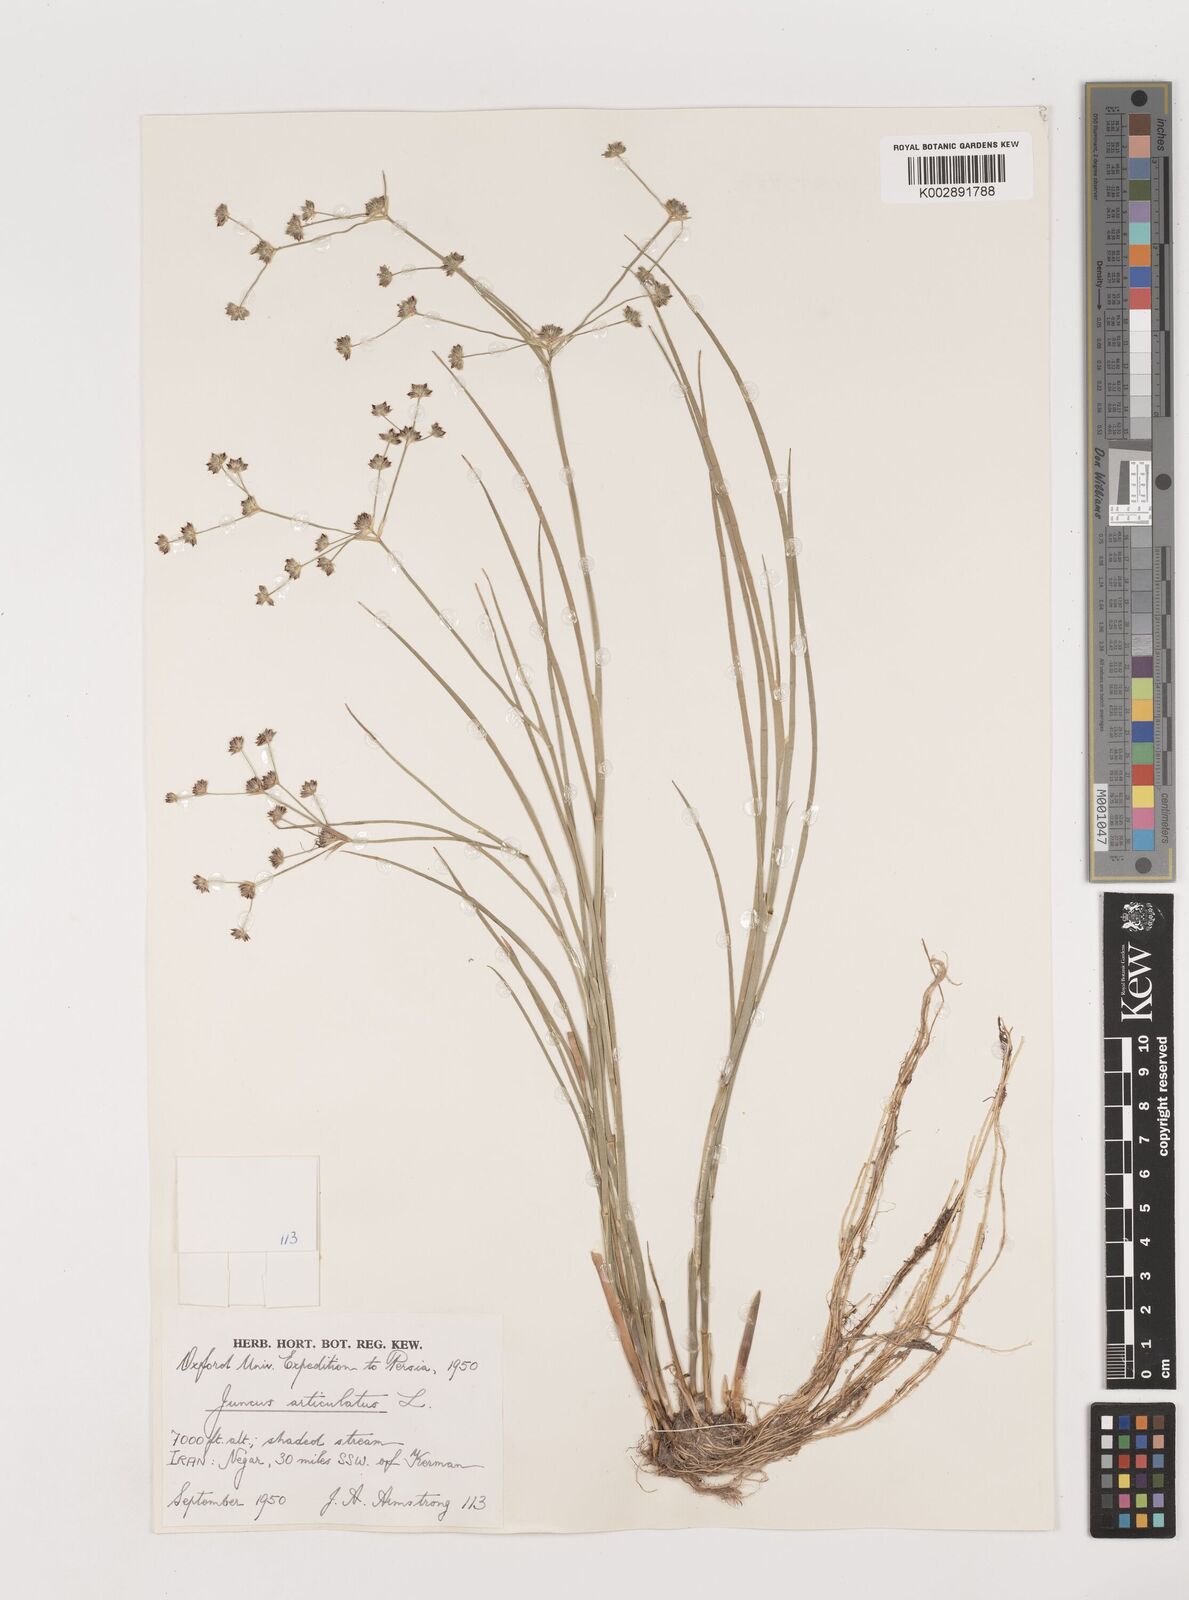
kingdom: Plantae
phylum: Tracheophyta
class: Liliopsida
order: Poales
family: Juncaceae
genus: Juncus
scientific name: Juncus articulatus
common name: Jointed rush
